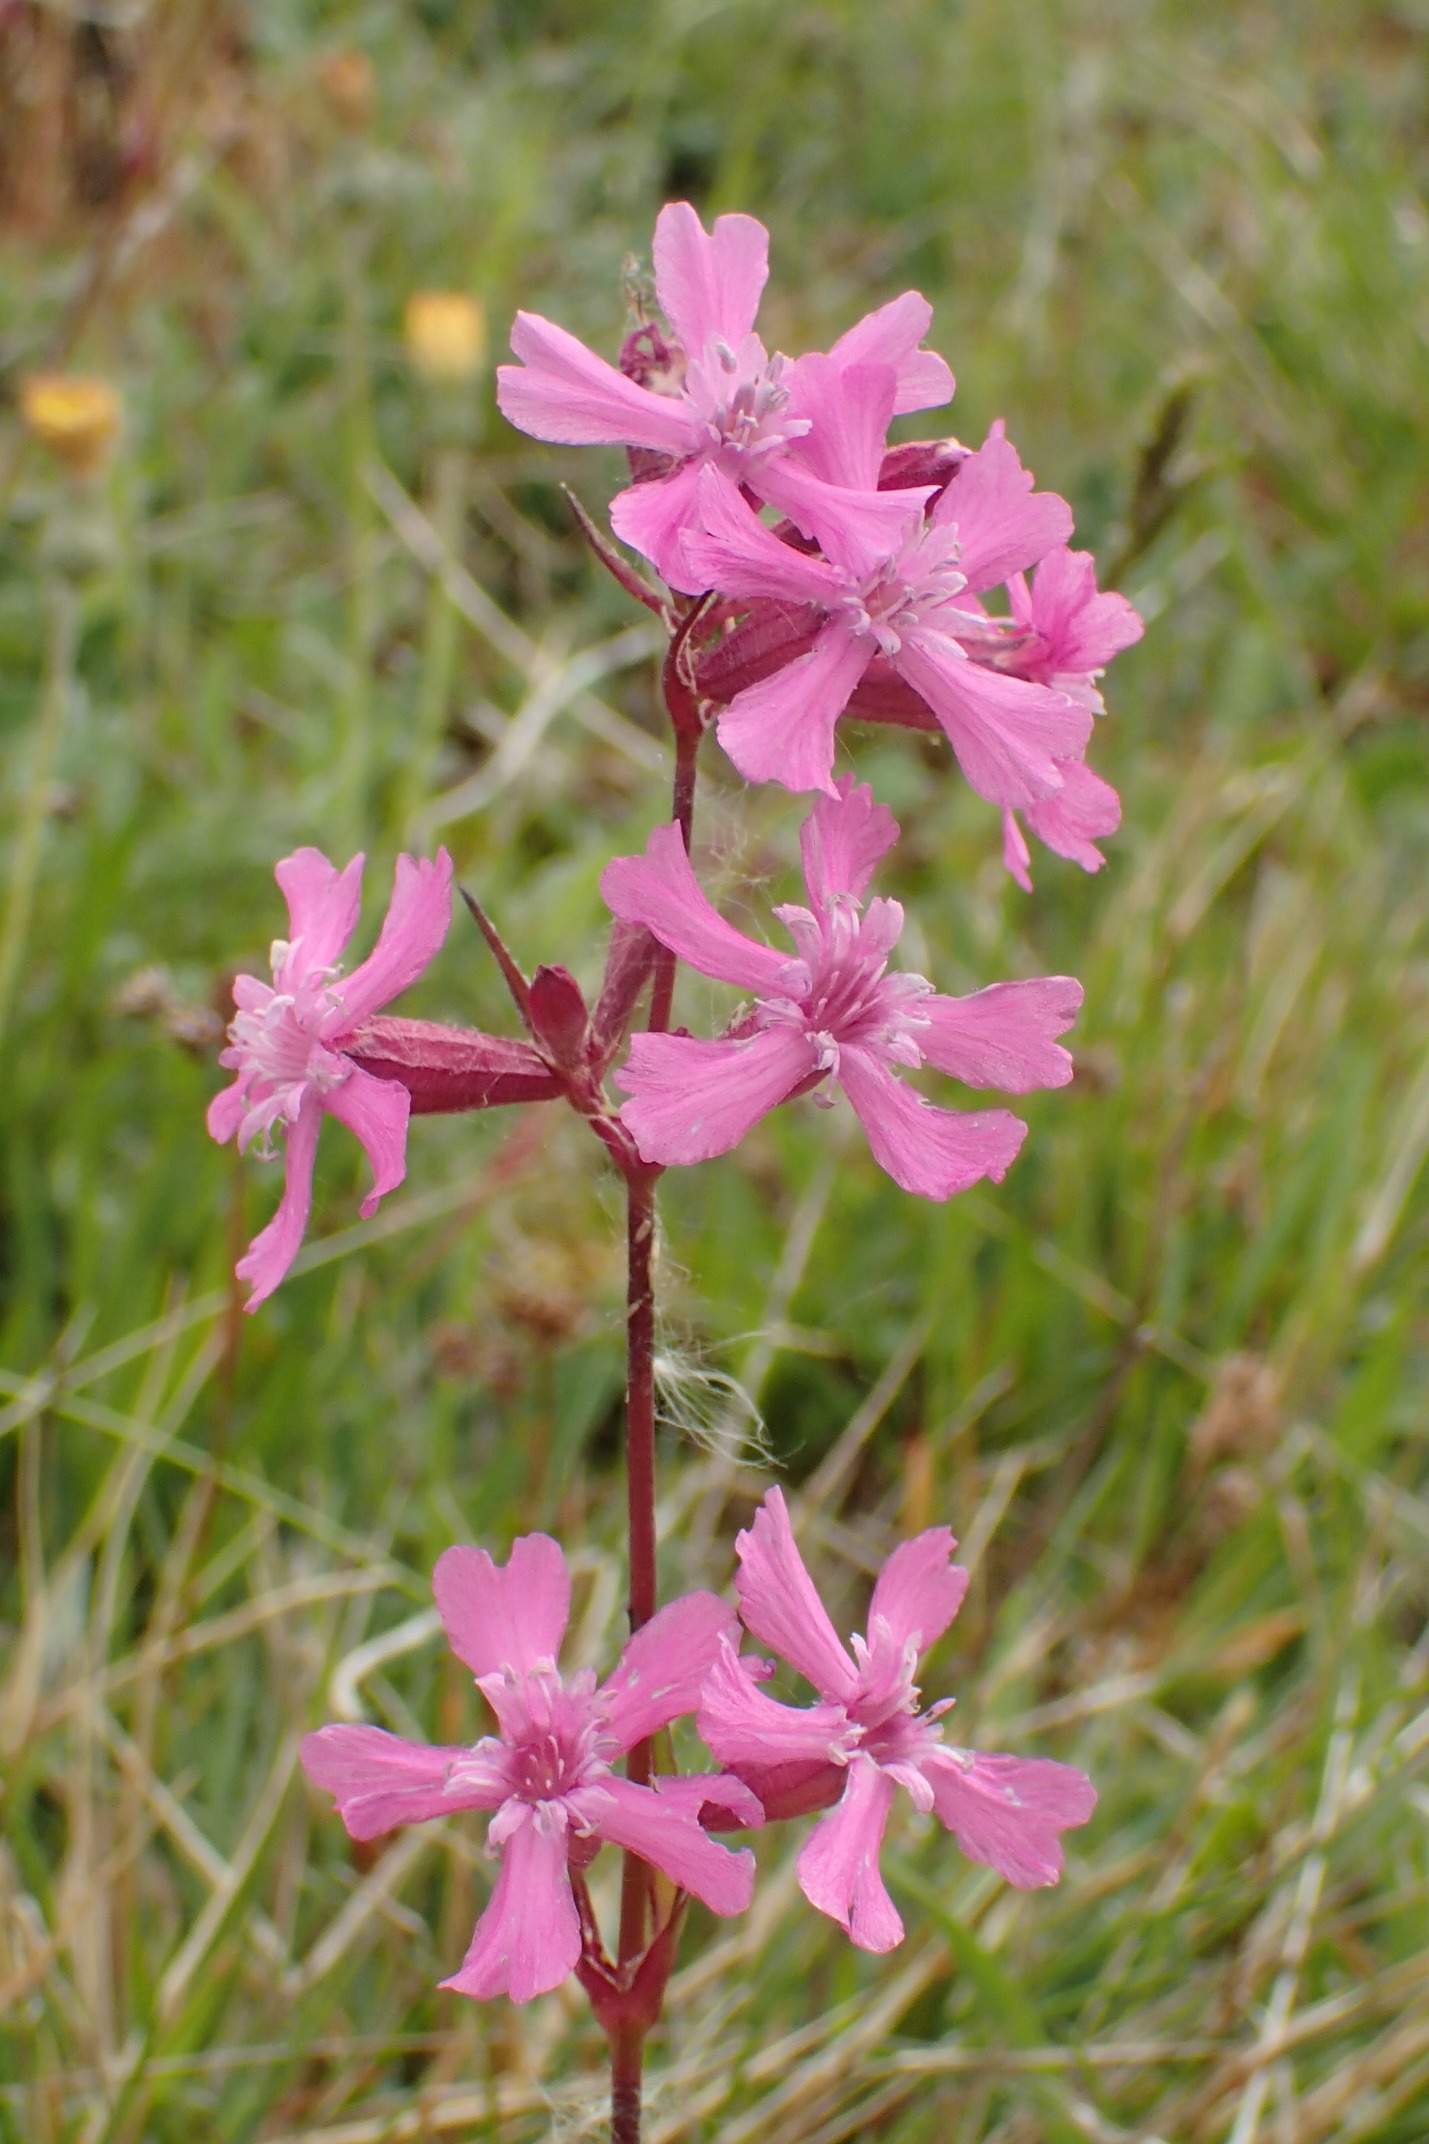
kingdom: Plantae
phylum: Tracheophyta
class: Magnoliopsida
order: Caryophyllales
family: Caryophyllaceae
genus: Viscaria
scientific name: Viscaria vulgaris
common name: Tjærenellike
